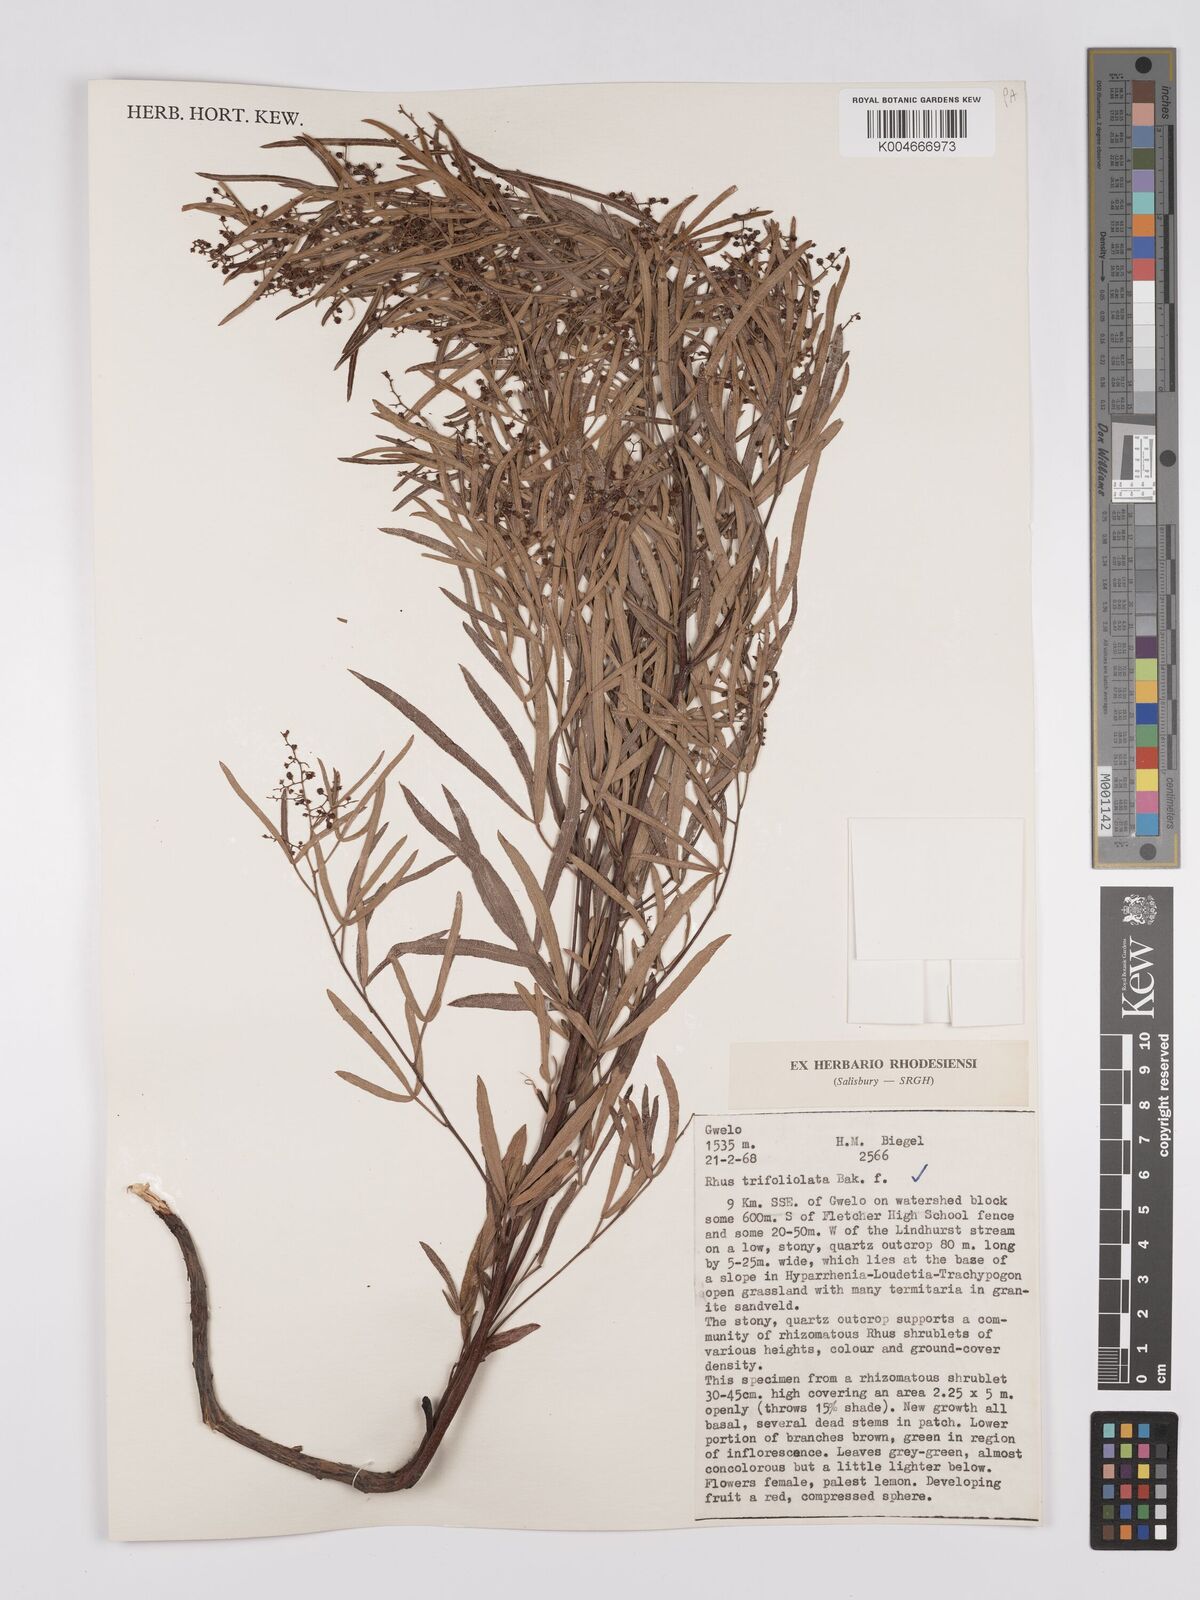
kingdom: Plantae
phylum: Tracheophyta
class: Magnoliopsida
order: Sapindales
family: Anacardiaceae
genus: Searsia
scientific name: Searsia magalismontana
